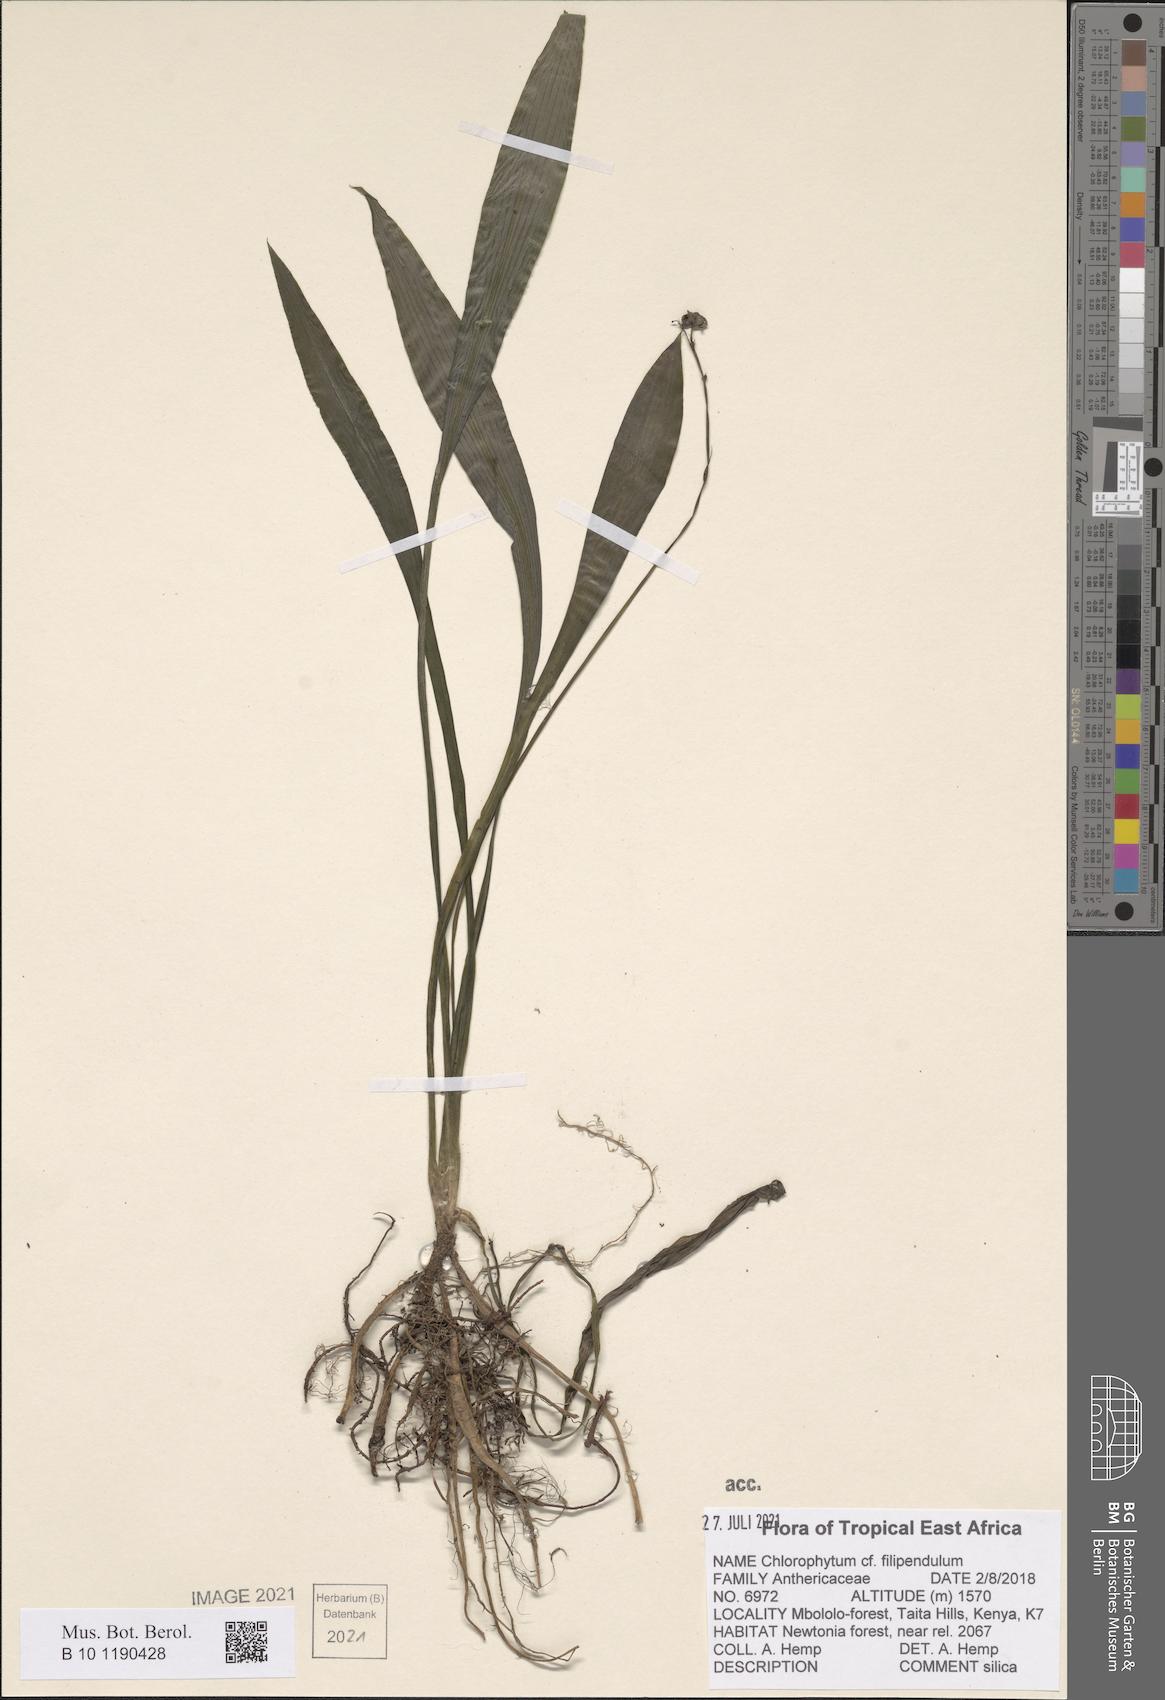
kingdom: Plantae
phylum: Tracheophyta
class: Liliopsida
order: Asparagales
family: Asparagaceae
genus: Chlorophytum
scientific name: Chlorophytum filipendulum
